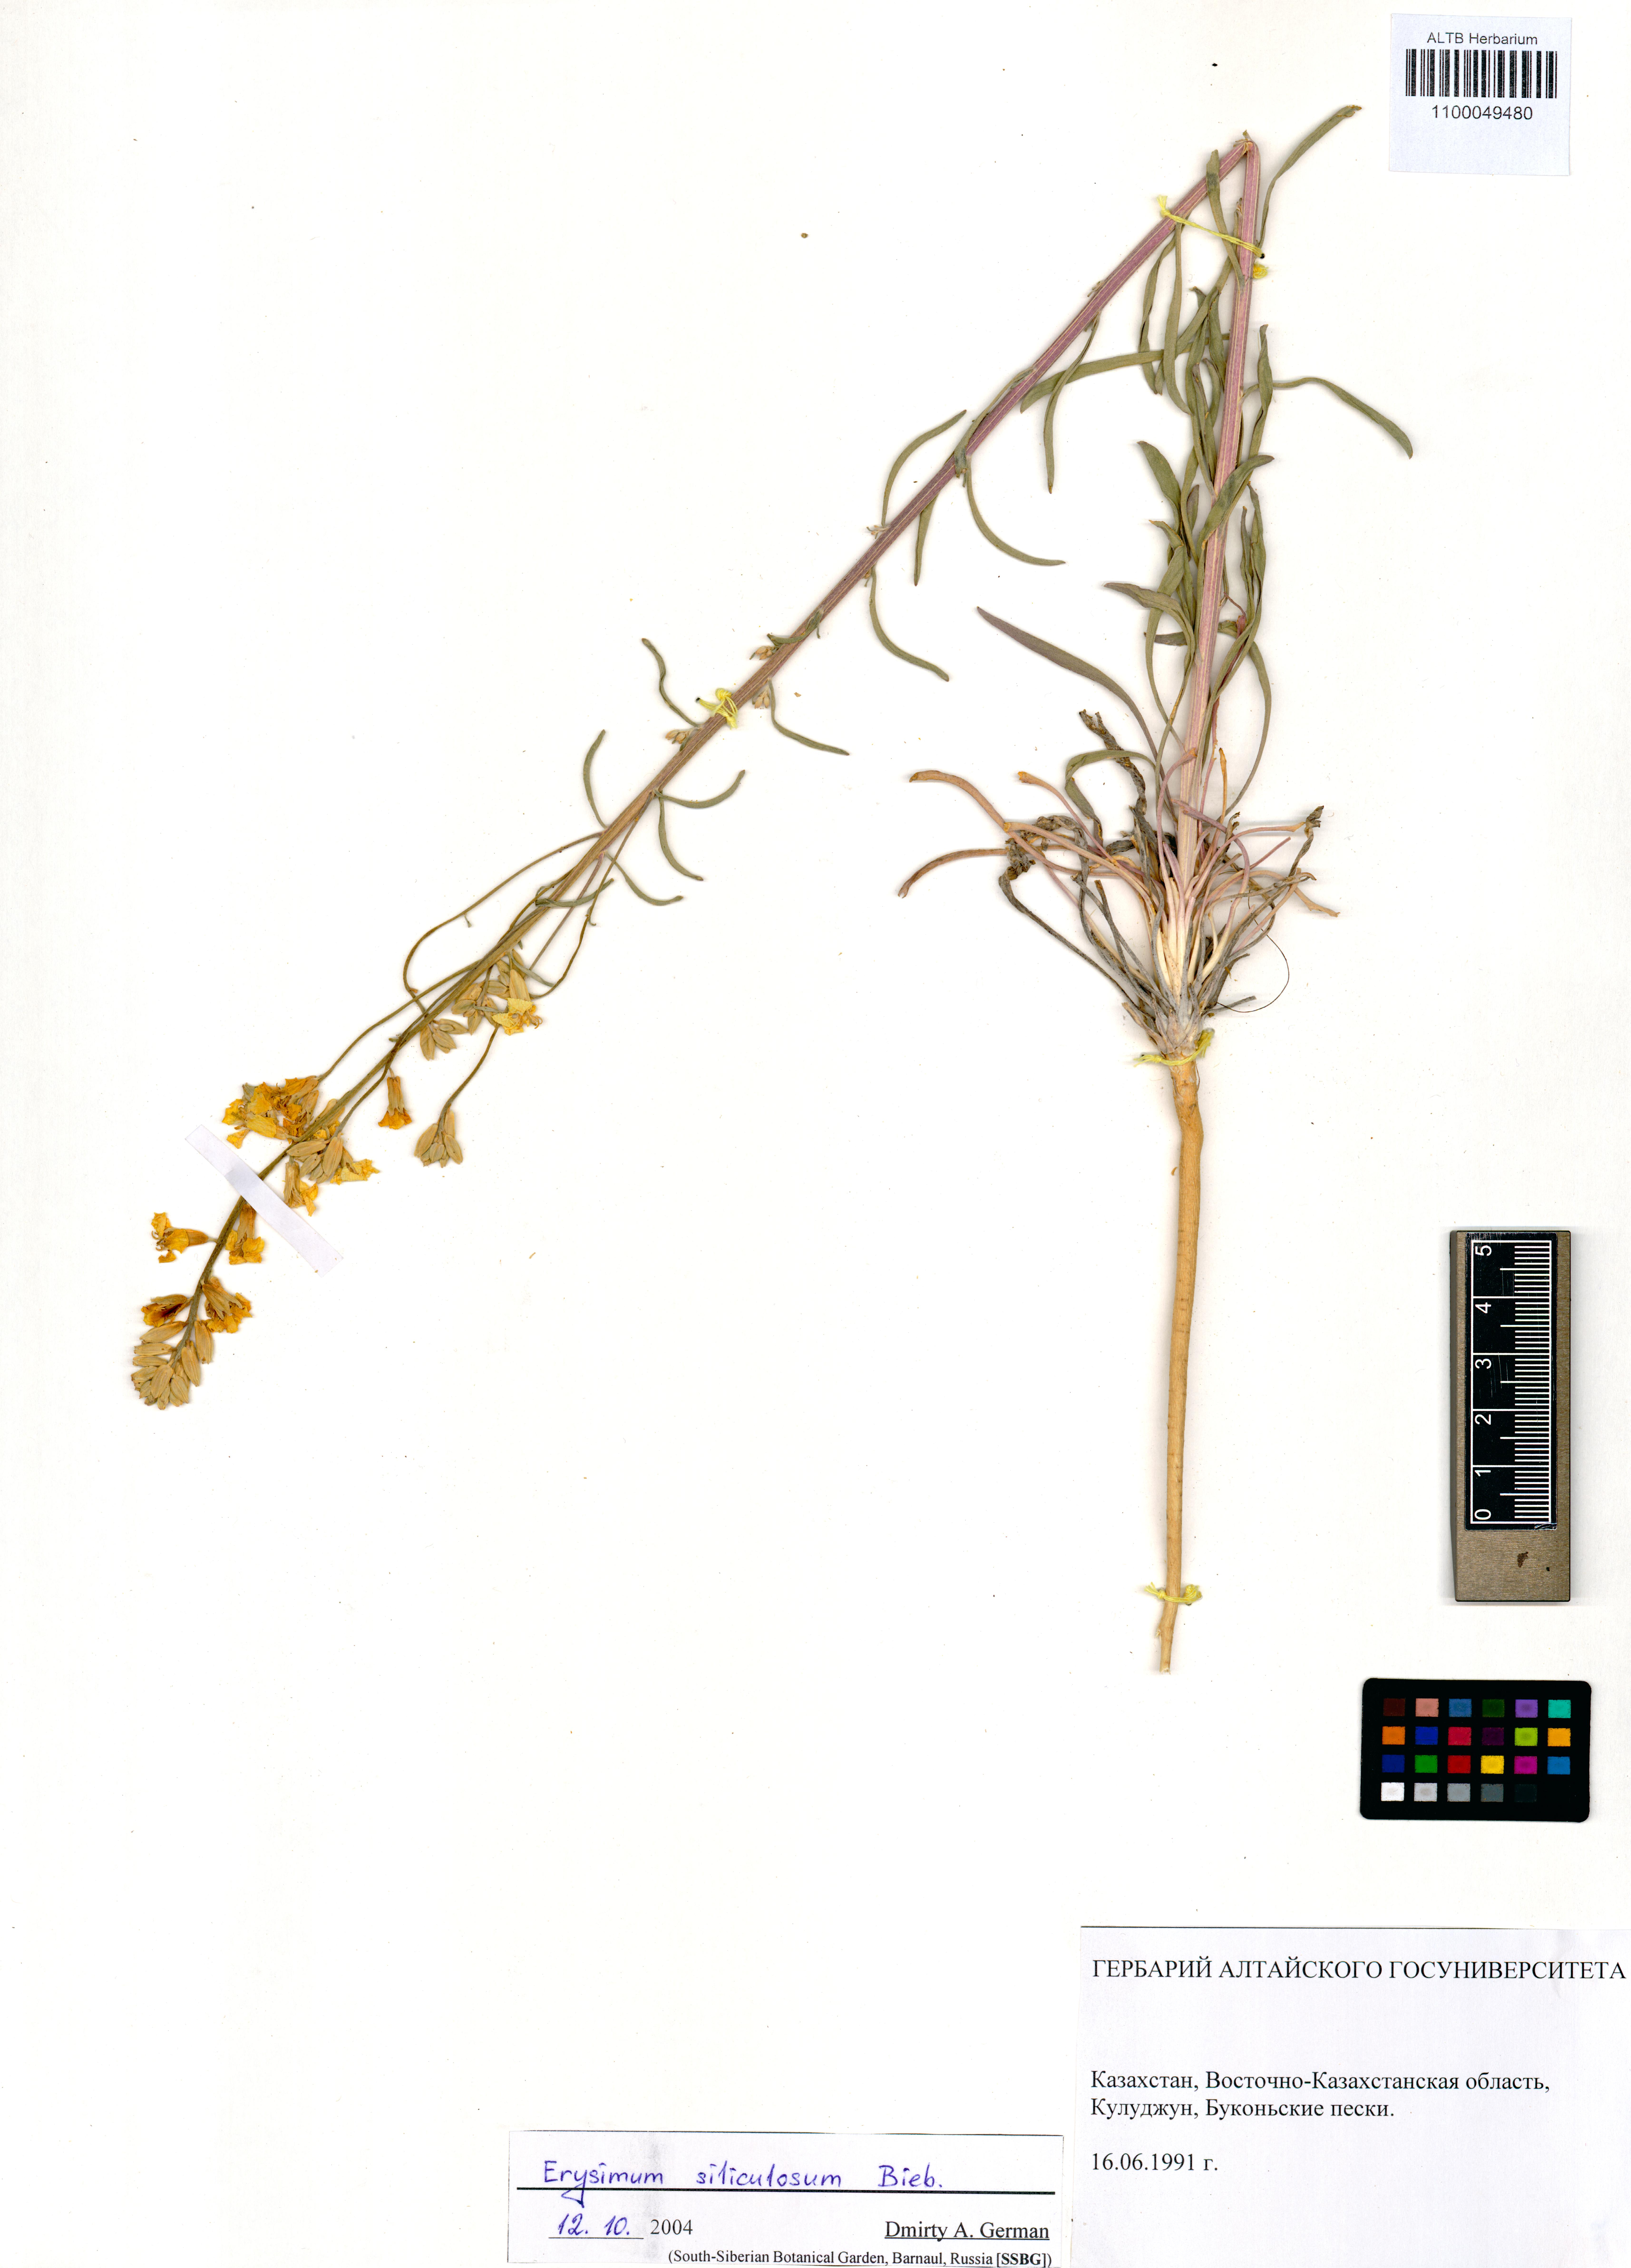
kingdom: Plantae
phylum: Tracheophyta
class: Magnoliopsida
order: Brassicales
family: Brassicaceae
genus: Erysimum
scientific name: Erysimum siliculosum
